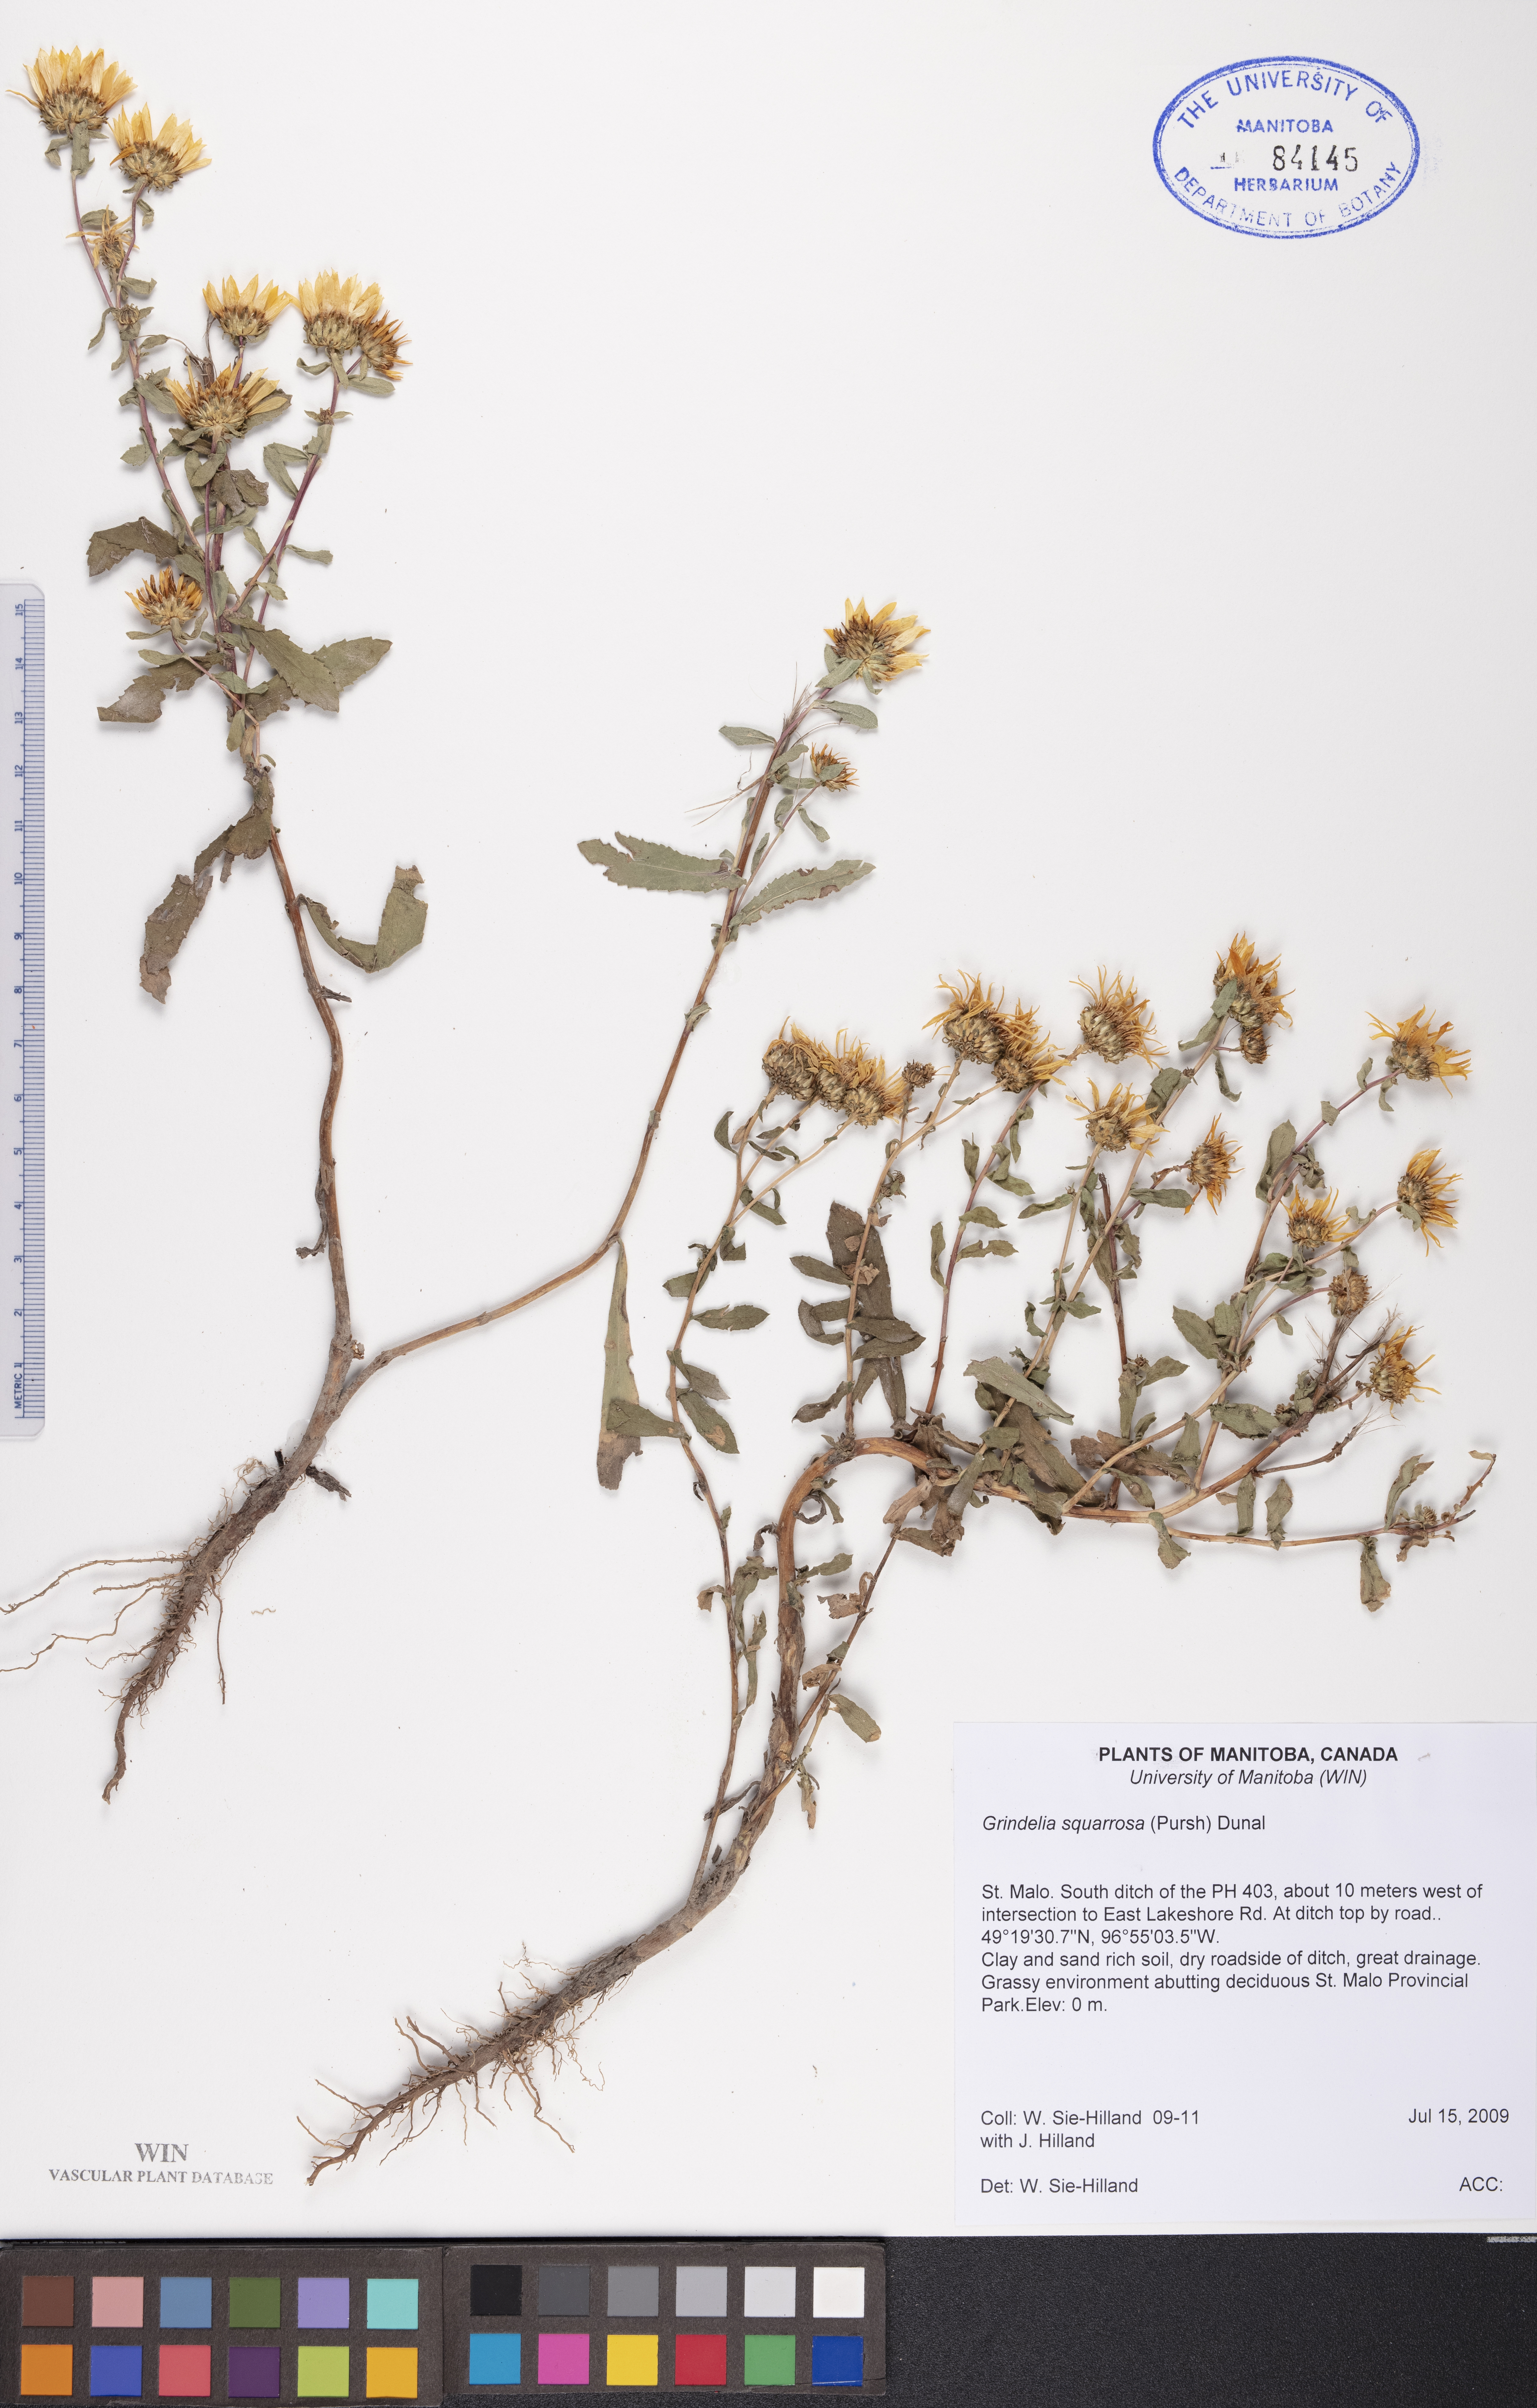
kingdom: Plantae
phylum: Tracheophyta
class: Magnoliopsida
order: Asterales
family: Asteraceae
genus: Grindelia
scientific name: Grindelia squarrosa
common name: Curly-cup gumweed
